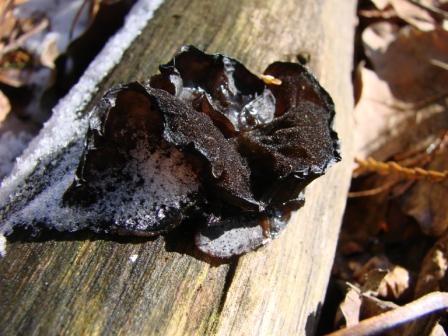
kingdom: Fungi
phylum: Basidiomycota
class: Agaricomycetes
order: Auriculariales
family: Auriculariaceae
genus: Exidia
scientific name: Exidia glandulosa
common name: ege-bævretop
